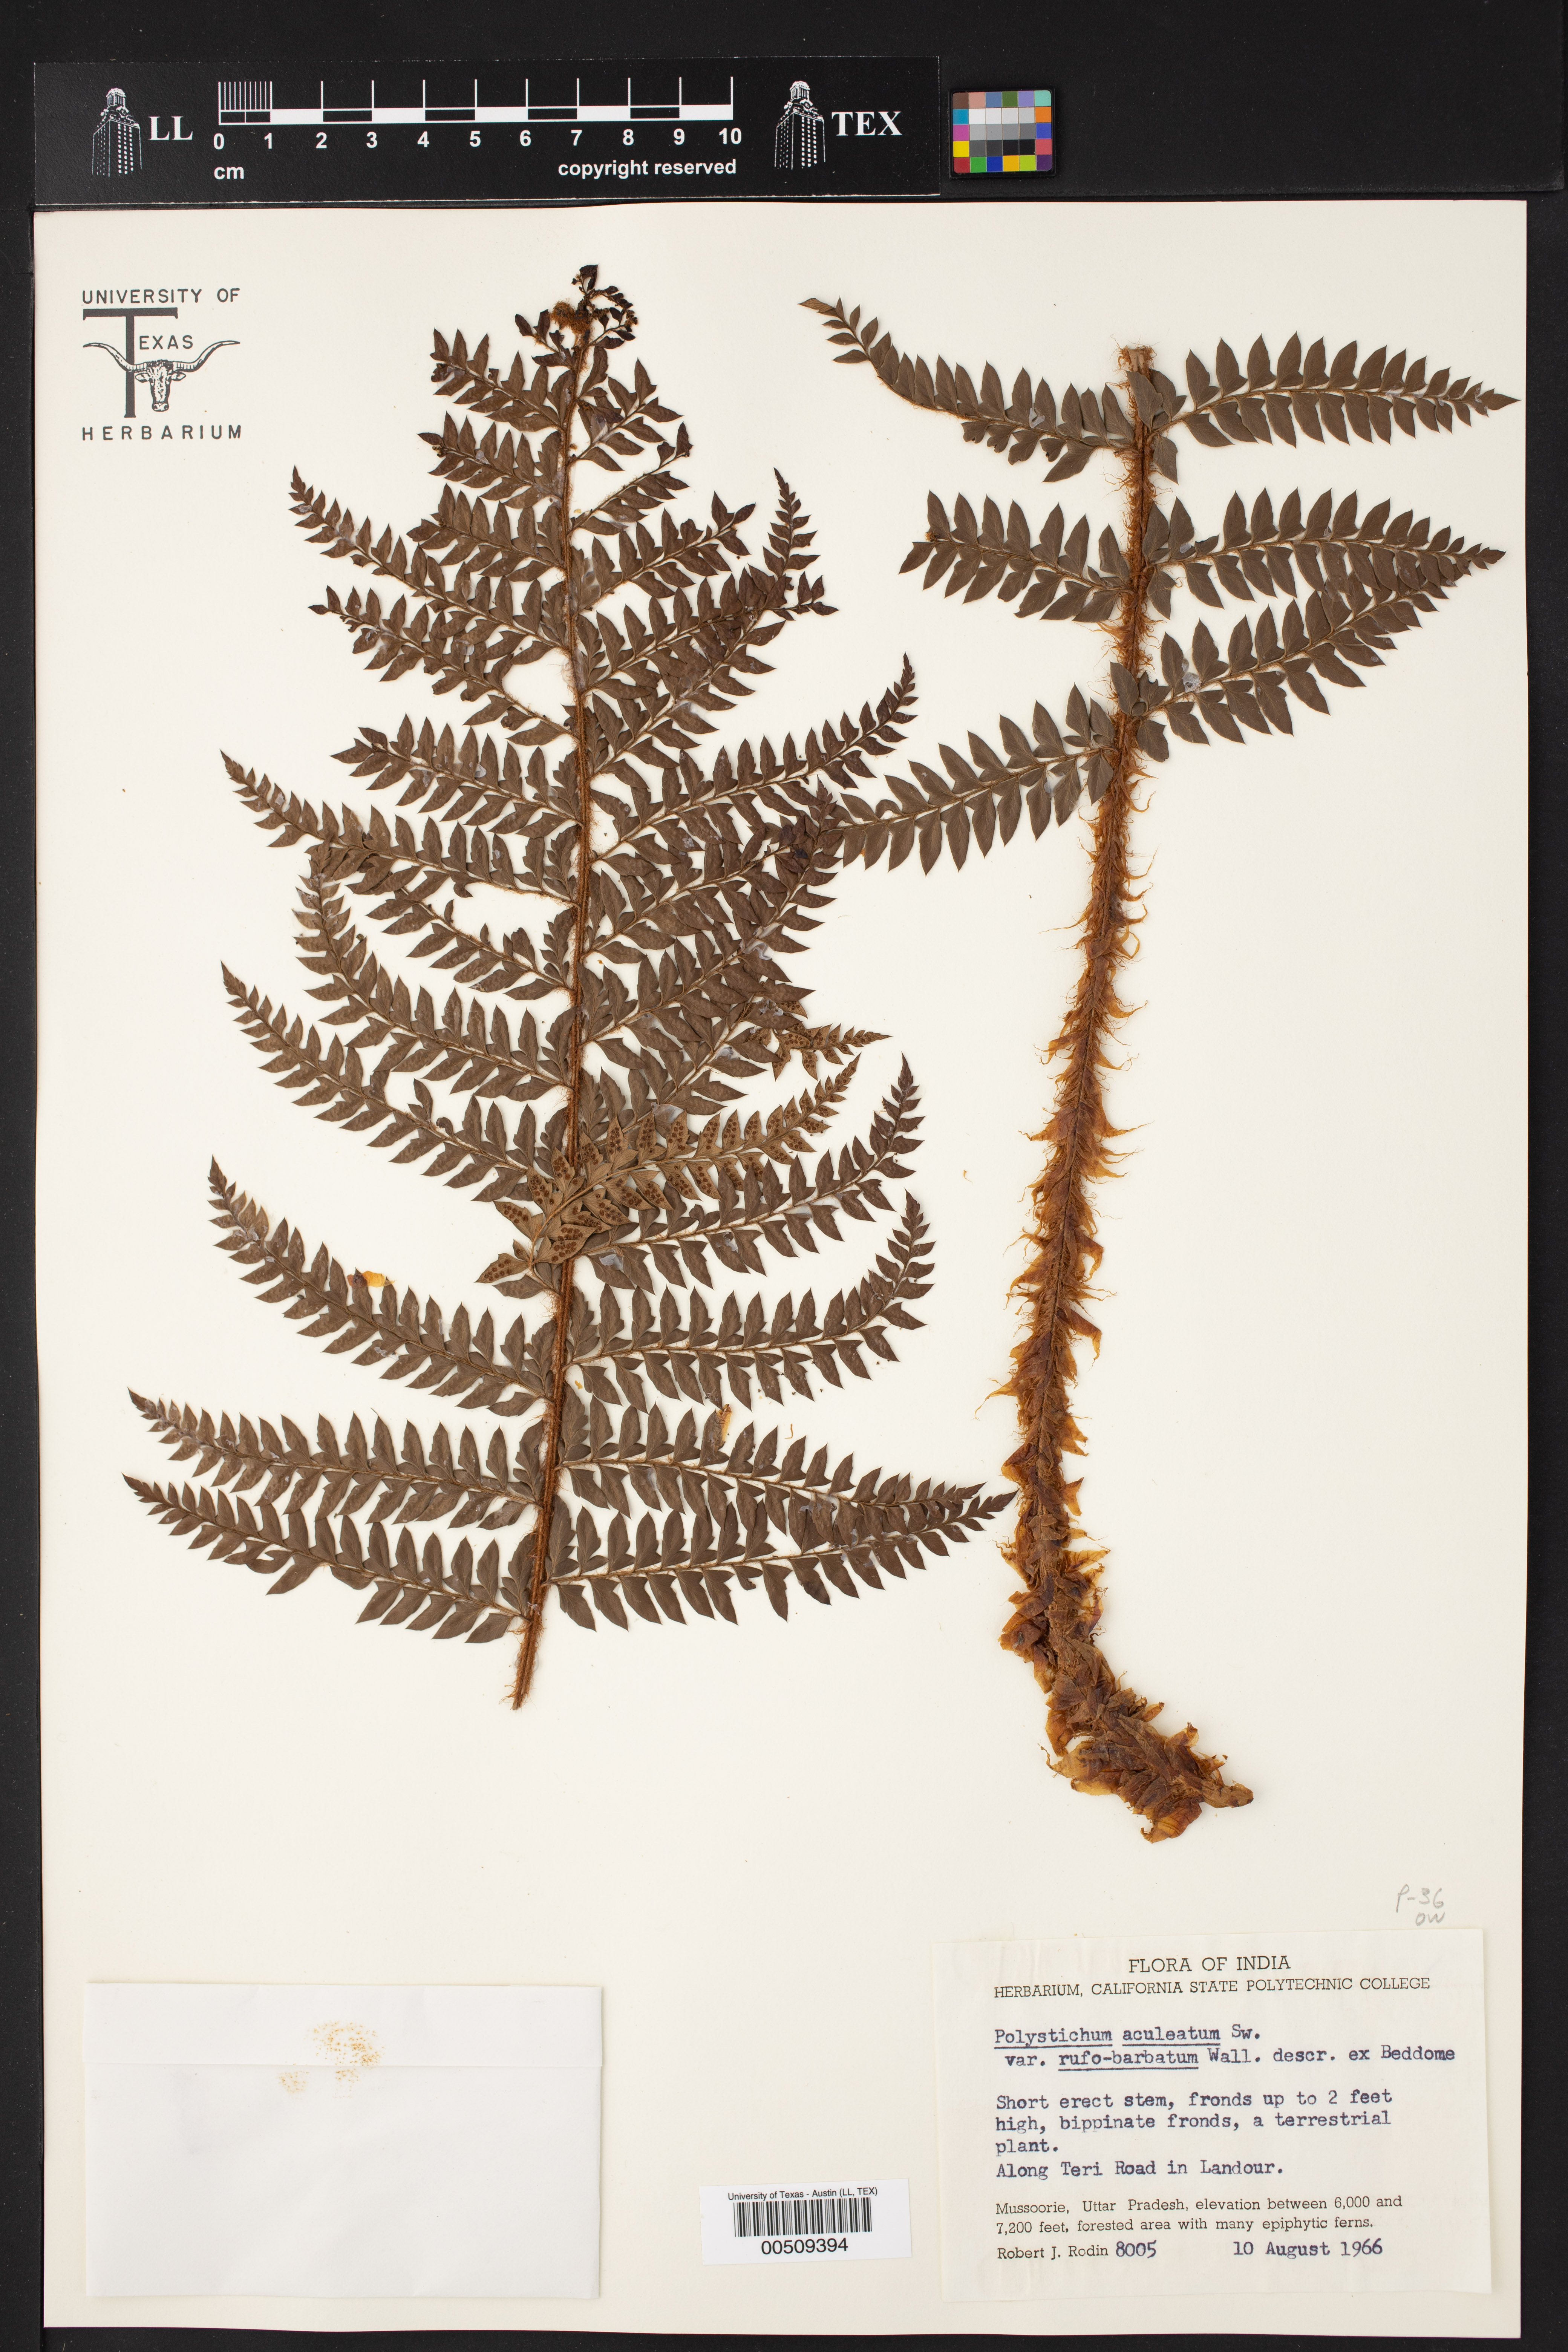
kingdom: Plantae
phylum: Tracheophyta
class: Polypodiopsida
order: Polypodiales
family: Dryopteridaceae
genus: Polystichum
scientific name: Polystichum squarrosum
